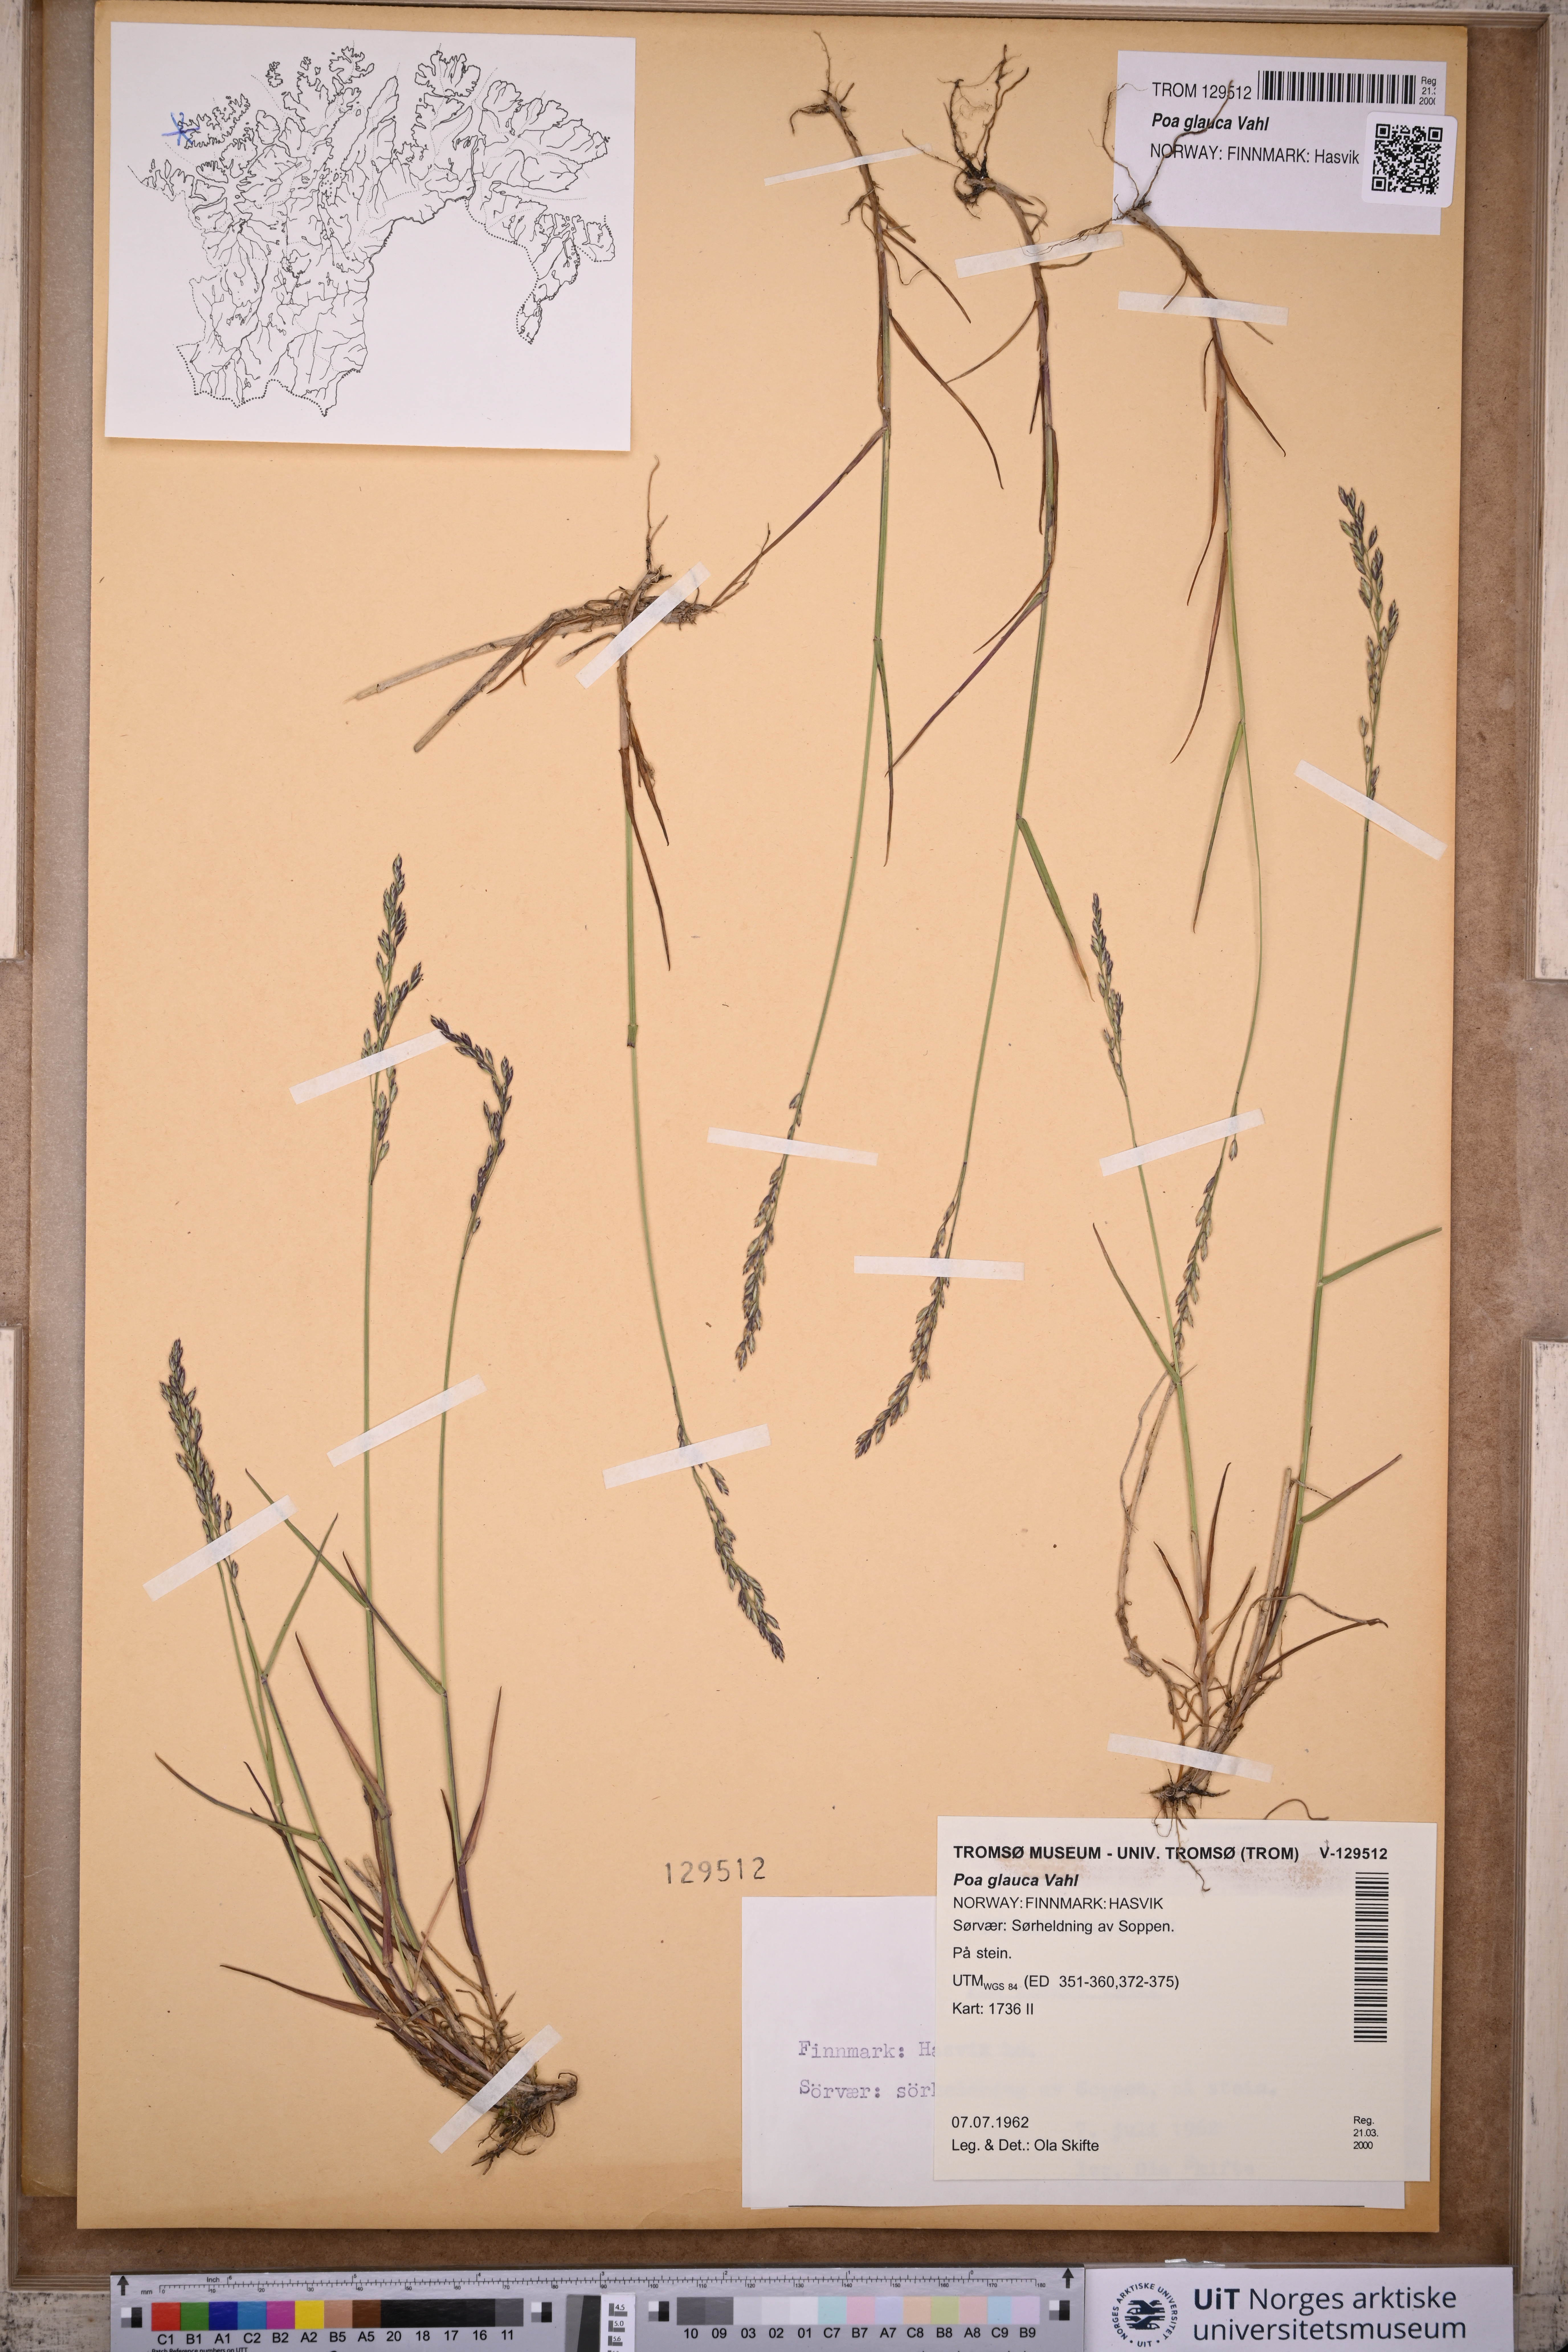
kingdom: Plantae
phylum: Tracheophyta
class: Liliopsida
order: Poales
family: Poaceae
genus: Poa
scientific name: Poa glauca
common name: Glaucous bluegrass
